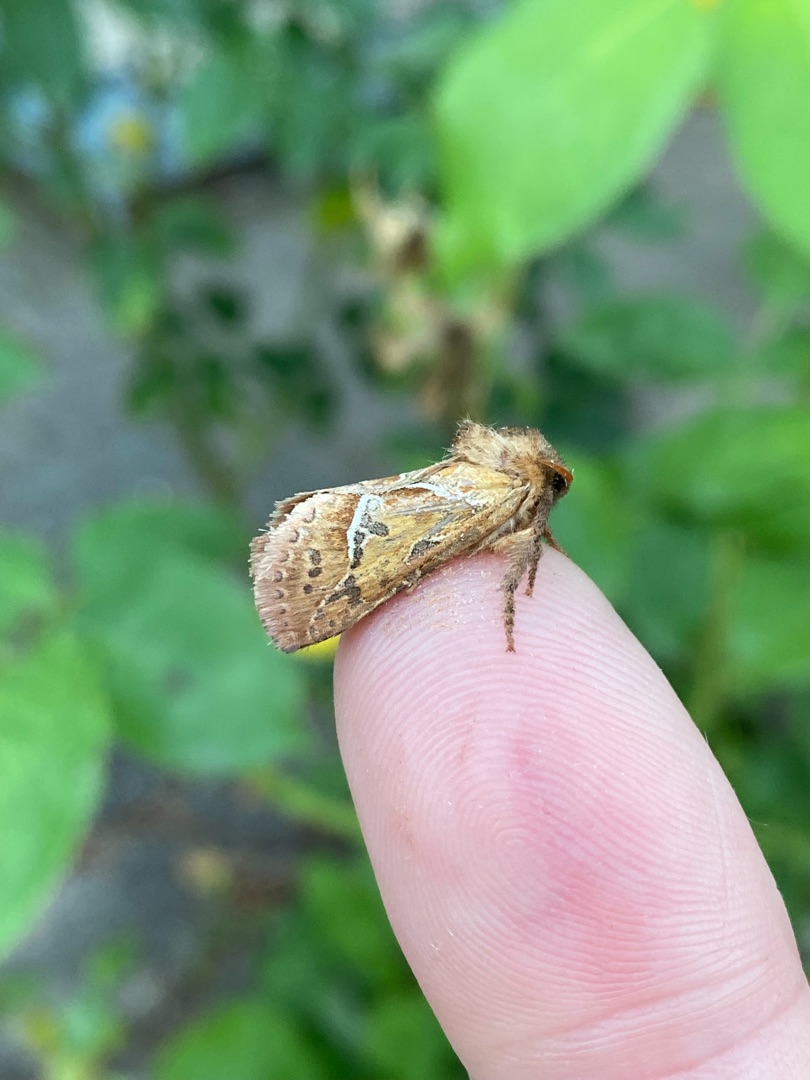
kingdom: Animalia
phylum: Arthropoda
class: Insecta
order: Lepidoptera
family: Hepialidae
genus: Triodia
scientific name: Triodia sylvina
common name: Skræpperodæder
